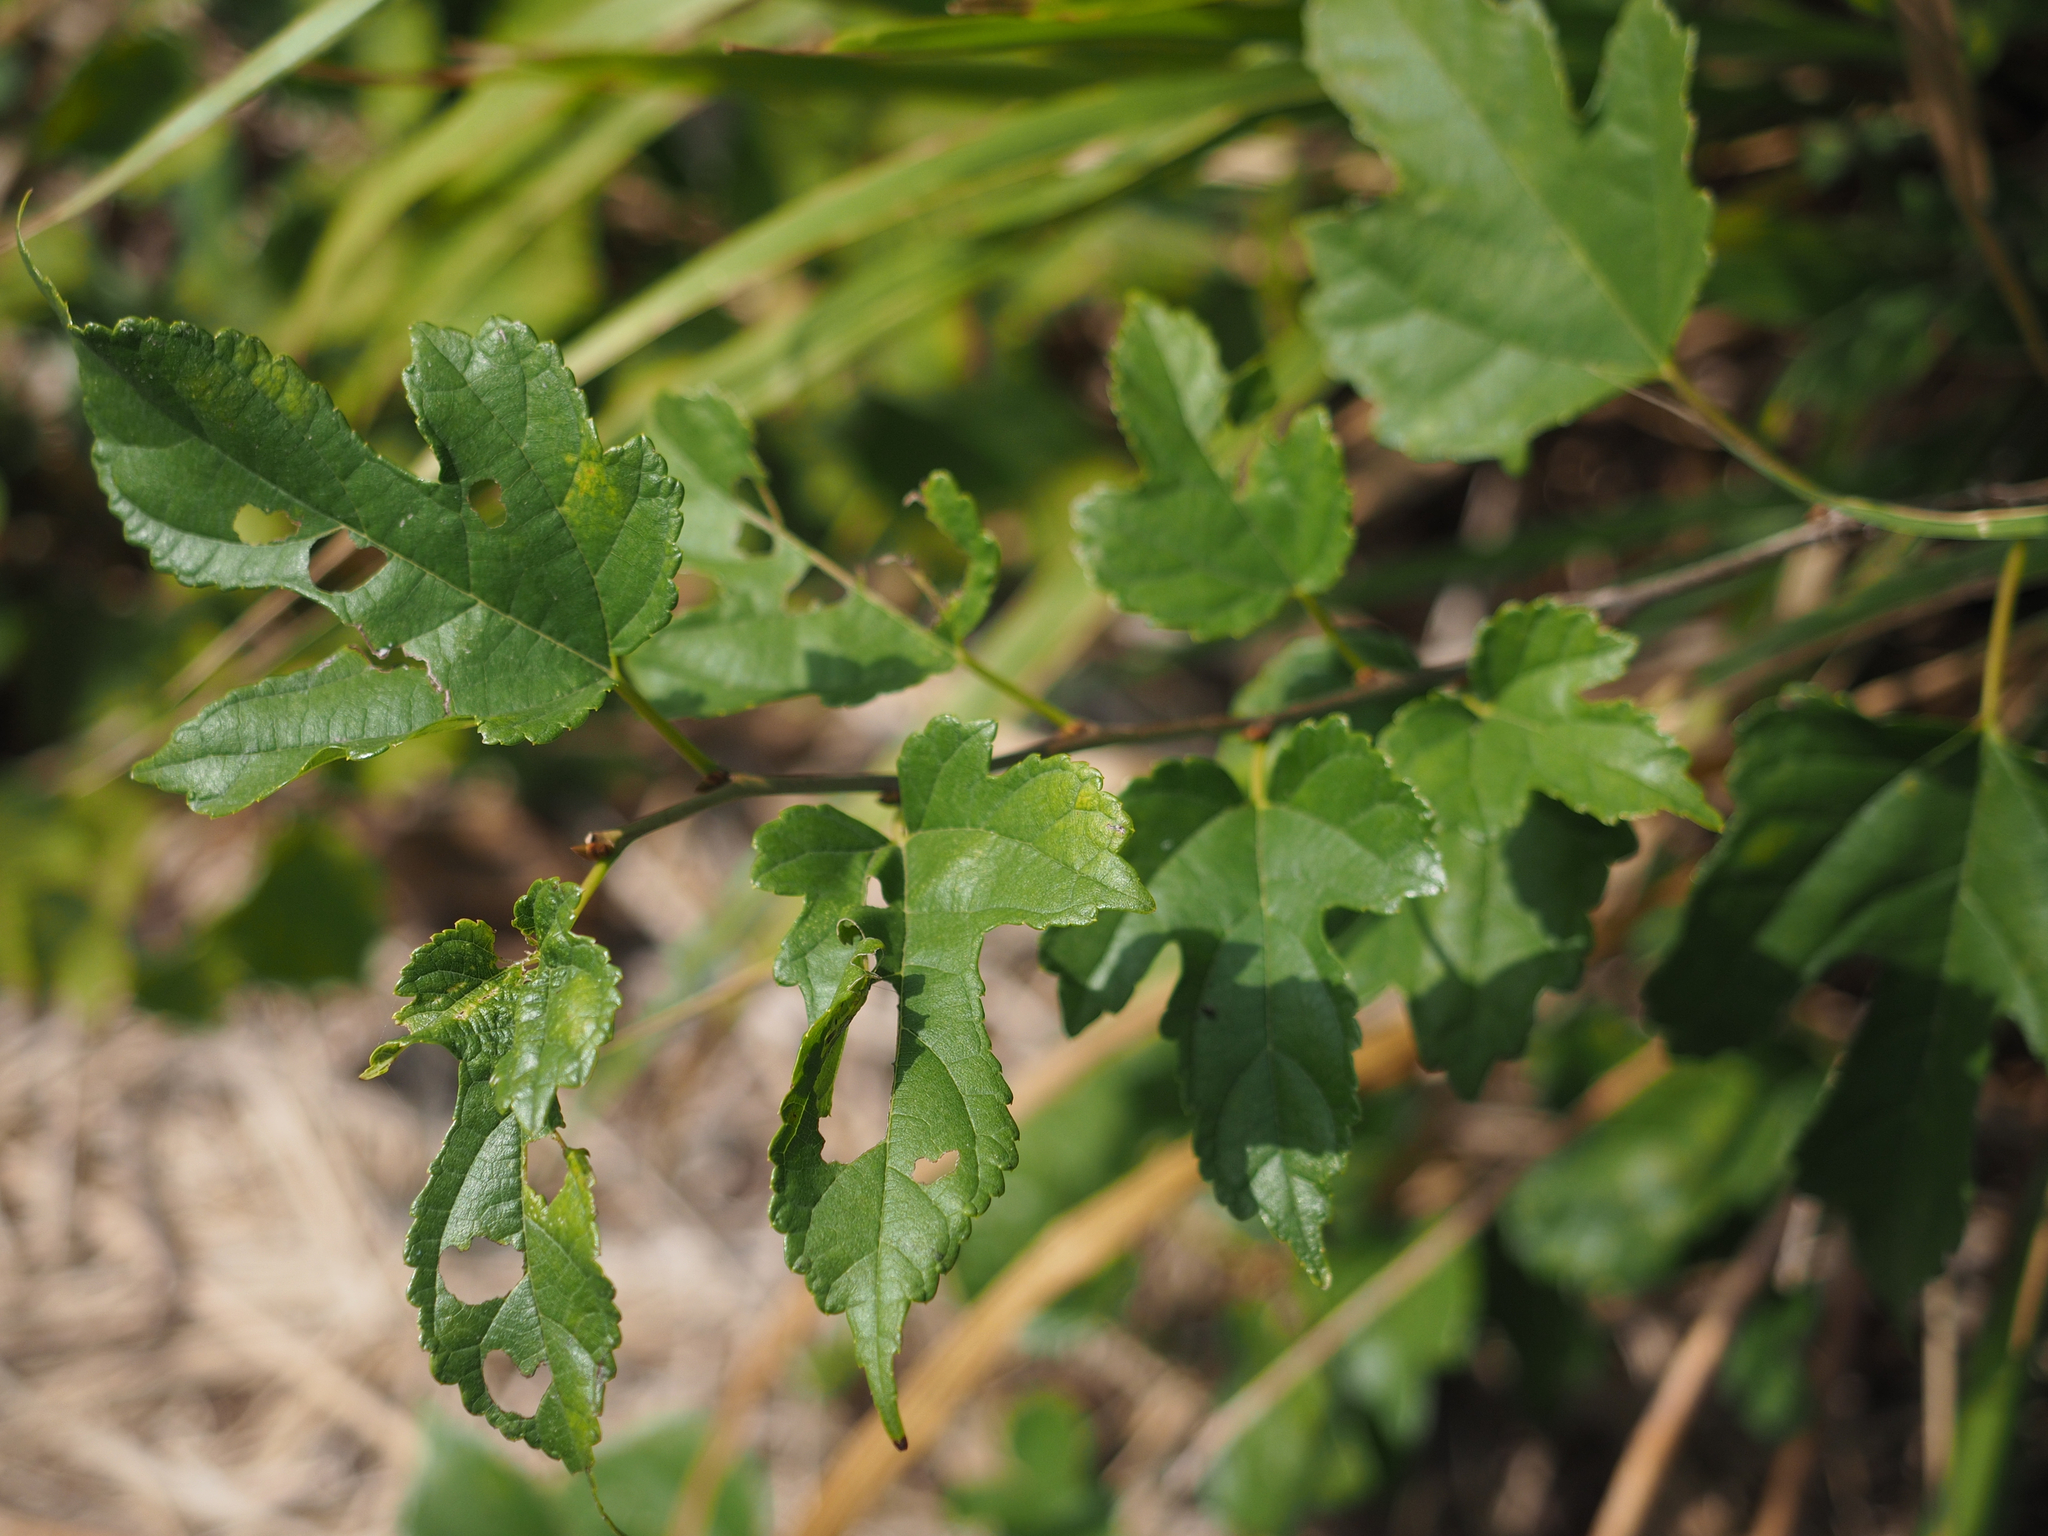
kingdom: Plantae
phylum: Tracheophyta
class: Magnoliopsida
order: Rosales
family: Moraceae
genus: Broussonetia
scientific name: Broussonetia papyrifera
